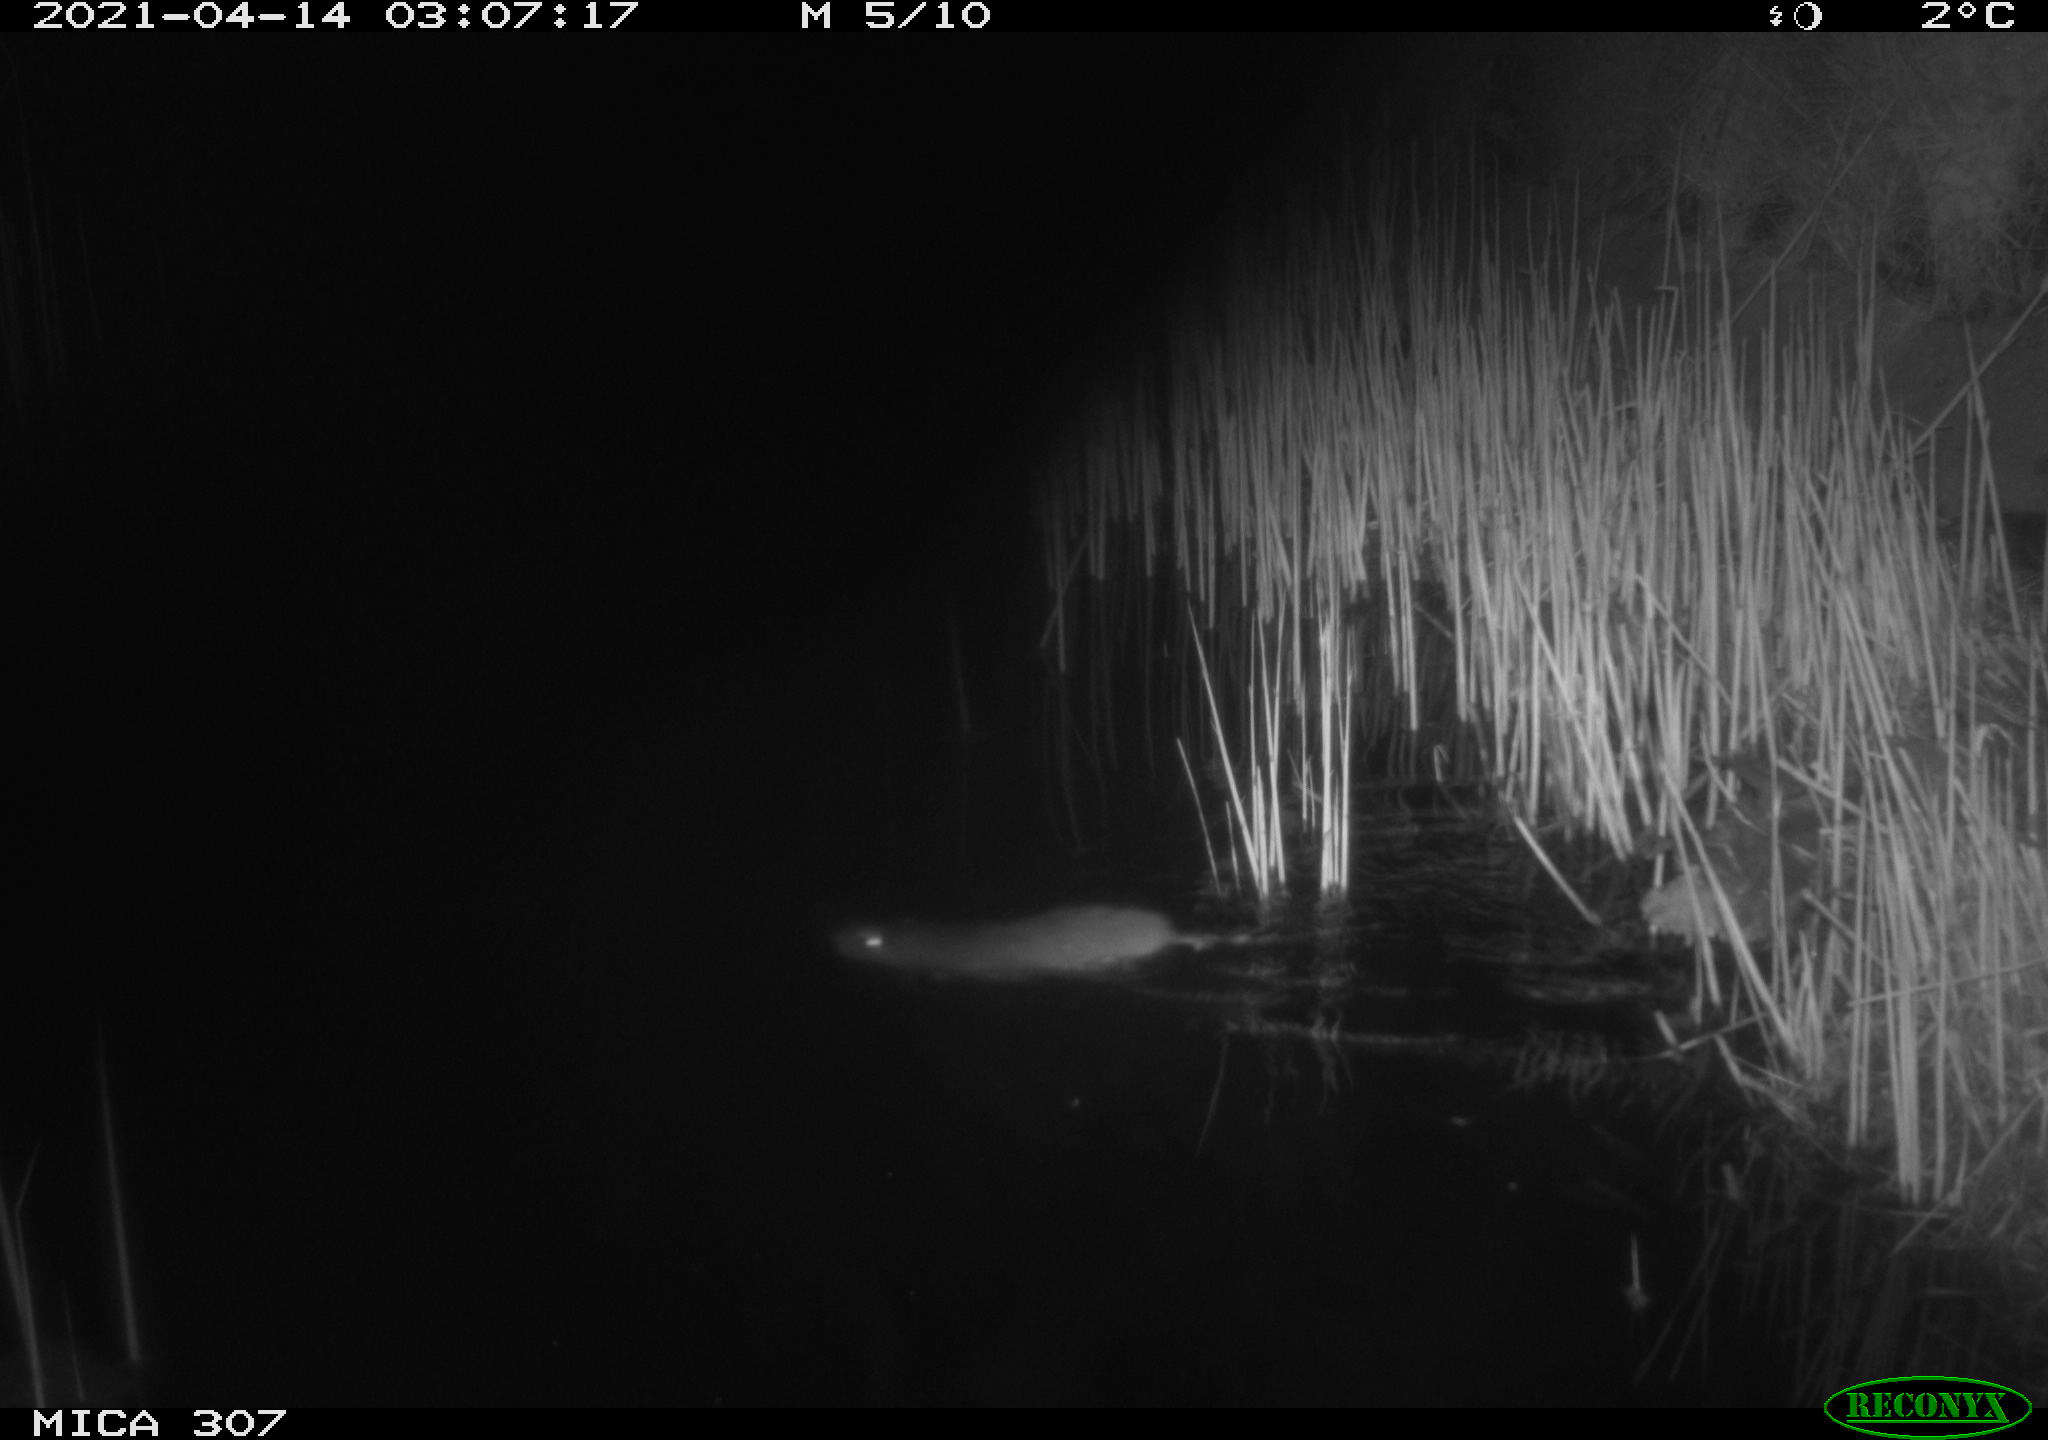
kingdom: Animalia
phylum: Chordata
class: Mammalia
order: Rodentia
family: Muridae
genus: Rattus
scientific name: Rattus norvegicus
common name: Brown rat
